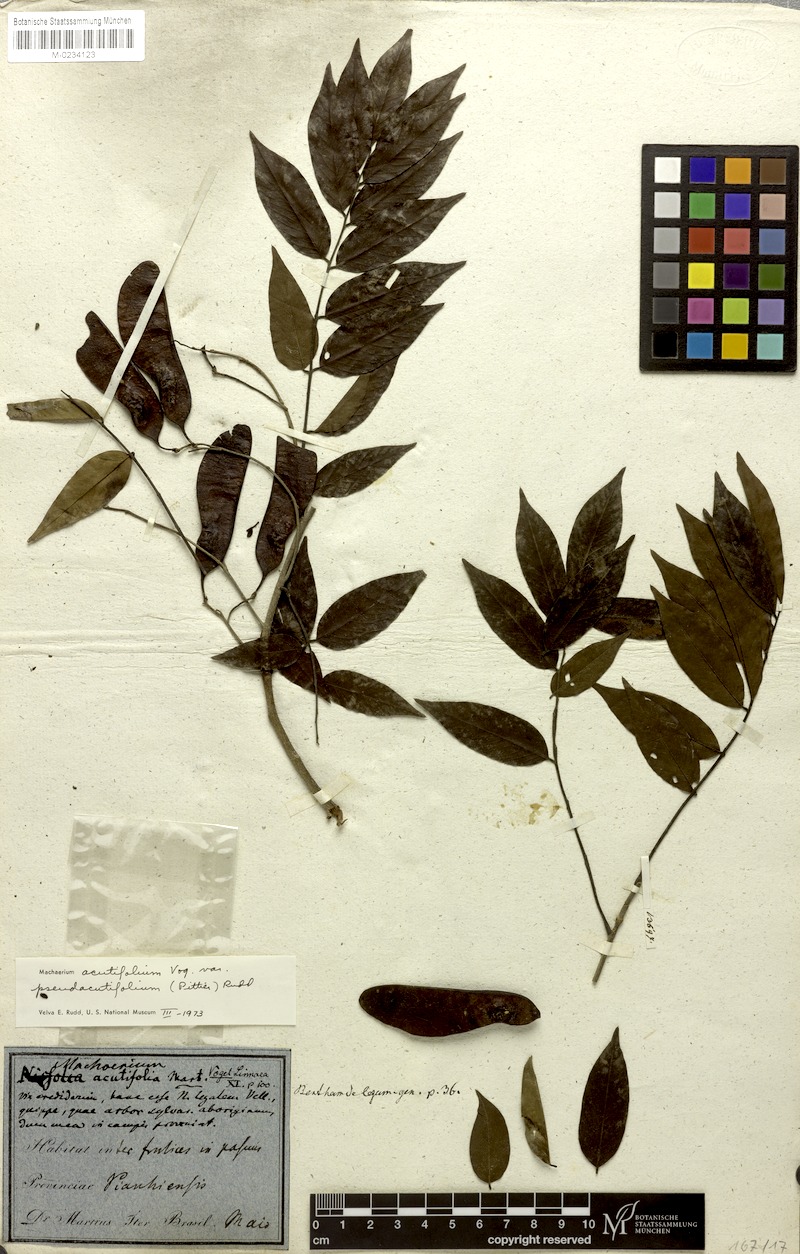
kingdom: Plantae
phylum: Tracheophyta
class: Magnoliopsida
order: Fabales
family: Fabaceae
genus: Machaerium
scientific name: Machaerium acutifolium
